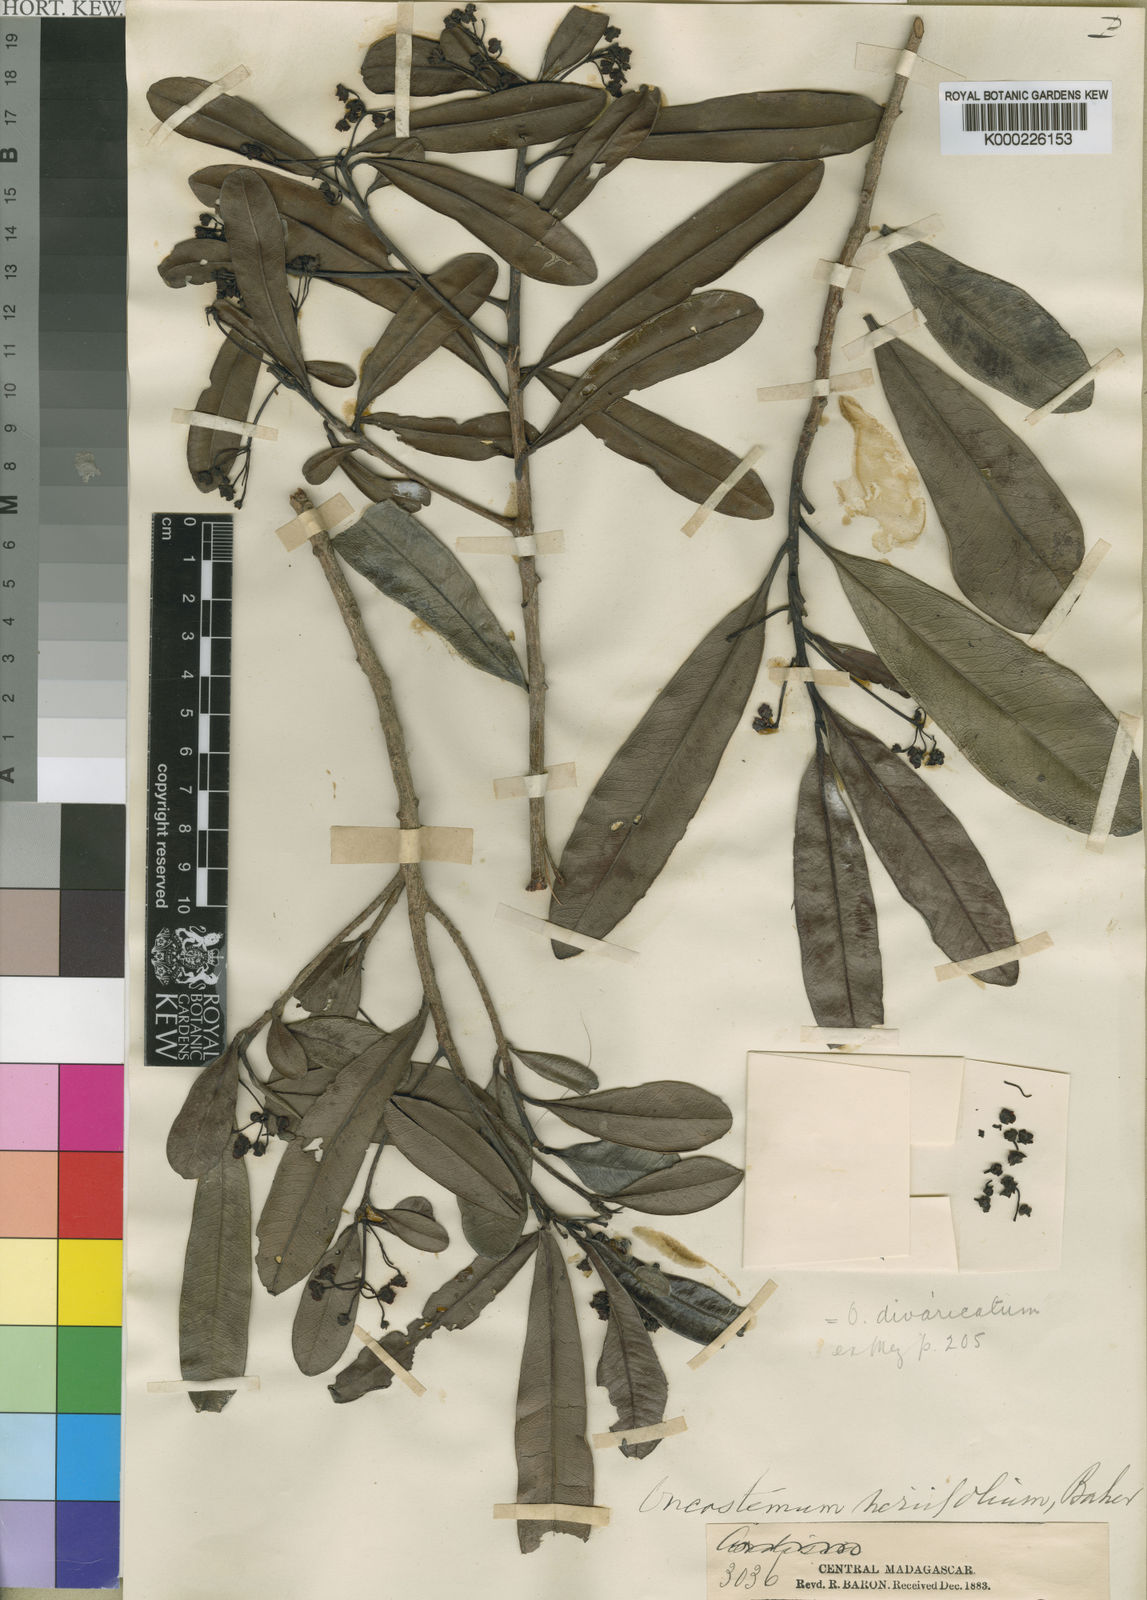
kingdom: Plantae
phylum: Tracheophyta
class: Magnoliopsida
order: Ericales
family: Primulaceae
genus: Oncostemum
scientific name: Oncostemum divaricatum
